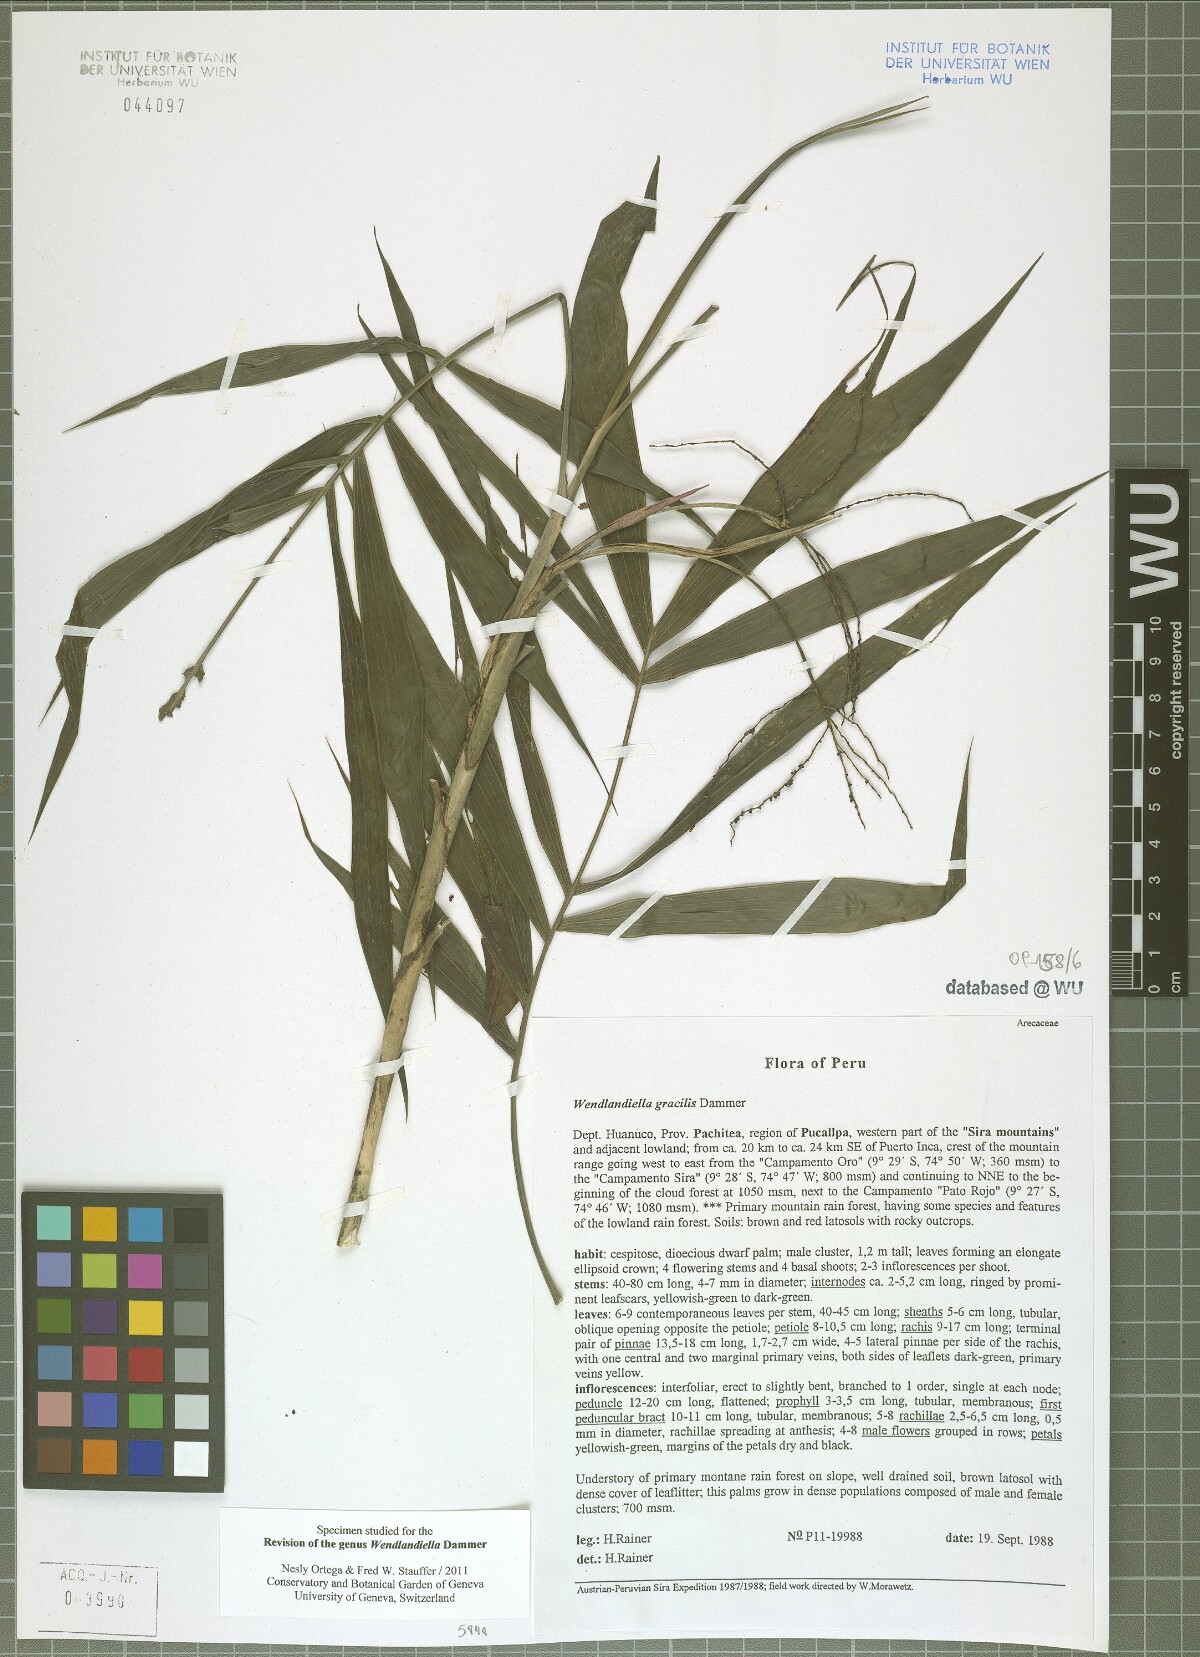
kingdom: Plantae
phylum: Tracheophyta
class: Liliopsida
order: Arecales
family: Arecaceae
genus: Wendlandiella
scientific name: Wendlandiella gracilis
